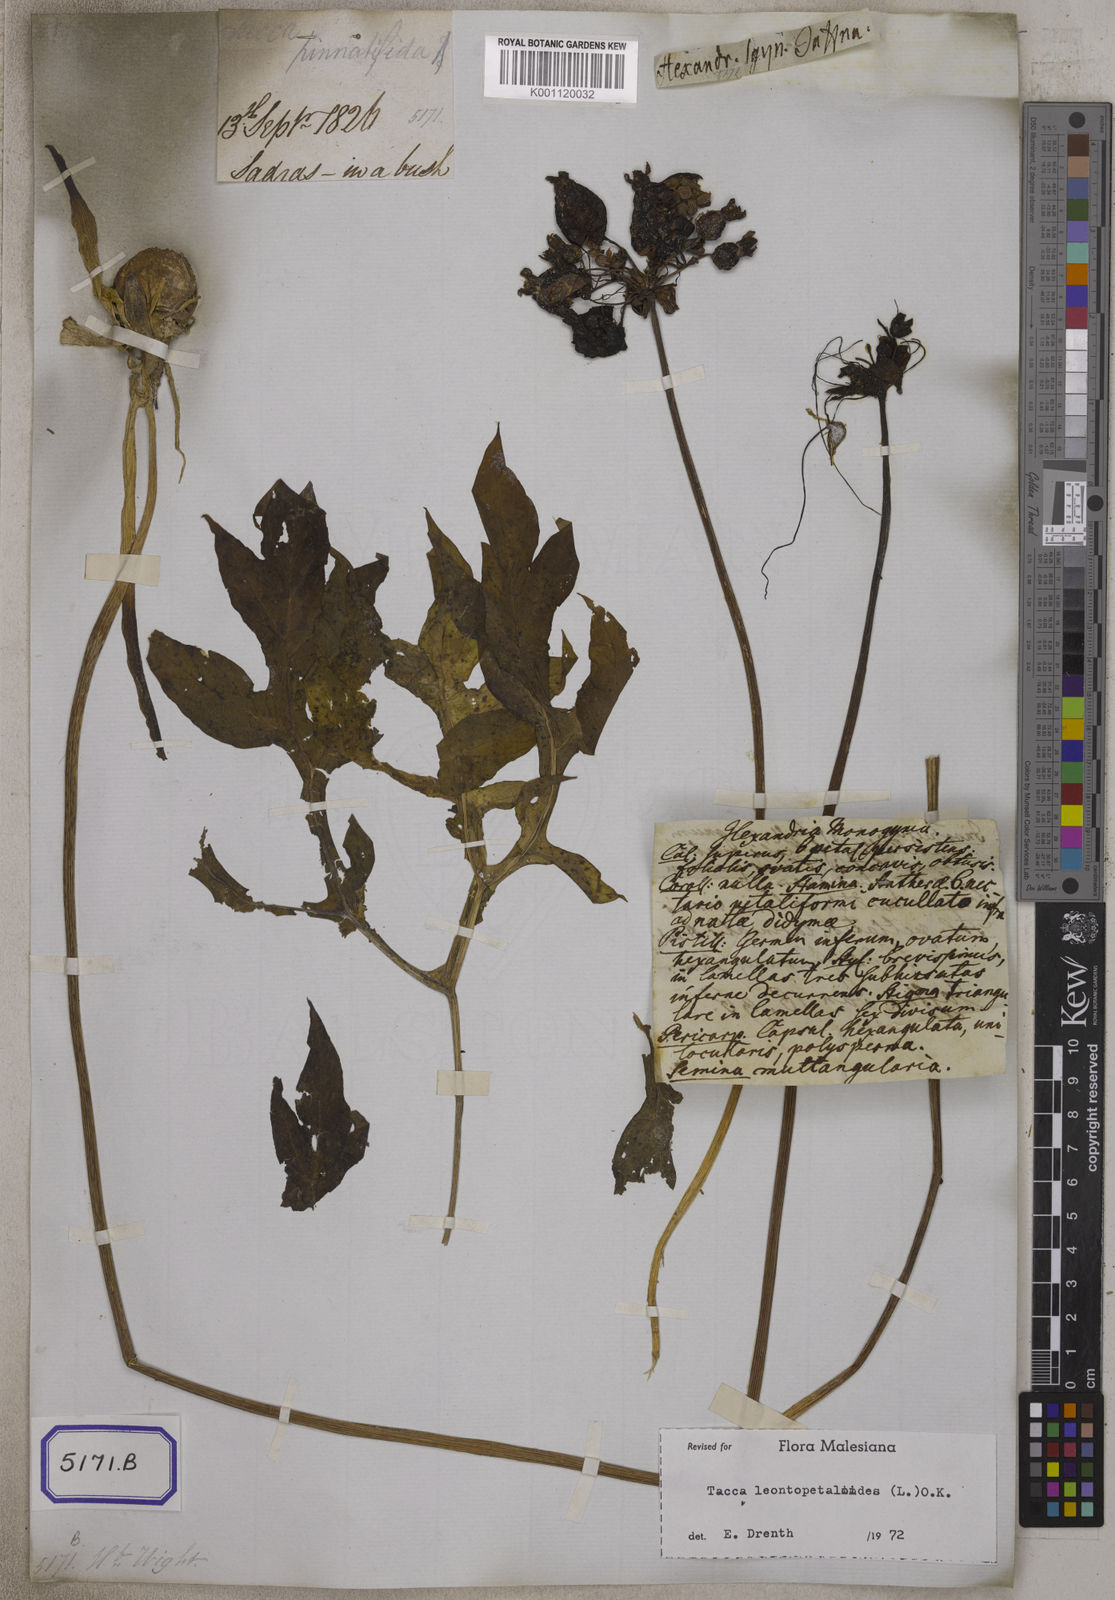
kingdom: Plantae
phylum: Tracheophyta
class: Liliopsida
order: Dioscoreales
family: Dioscoreaceae
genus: Tacca
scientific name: Tacca
